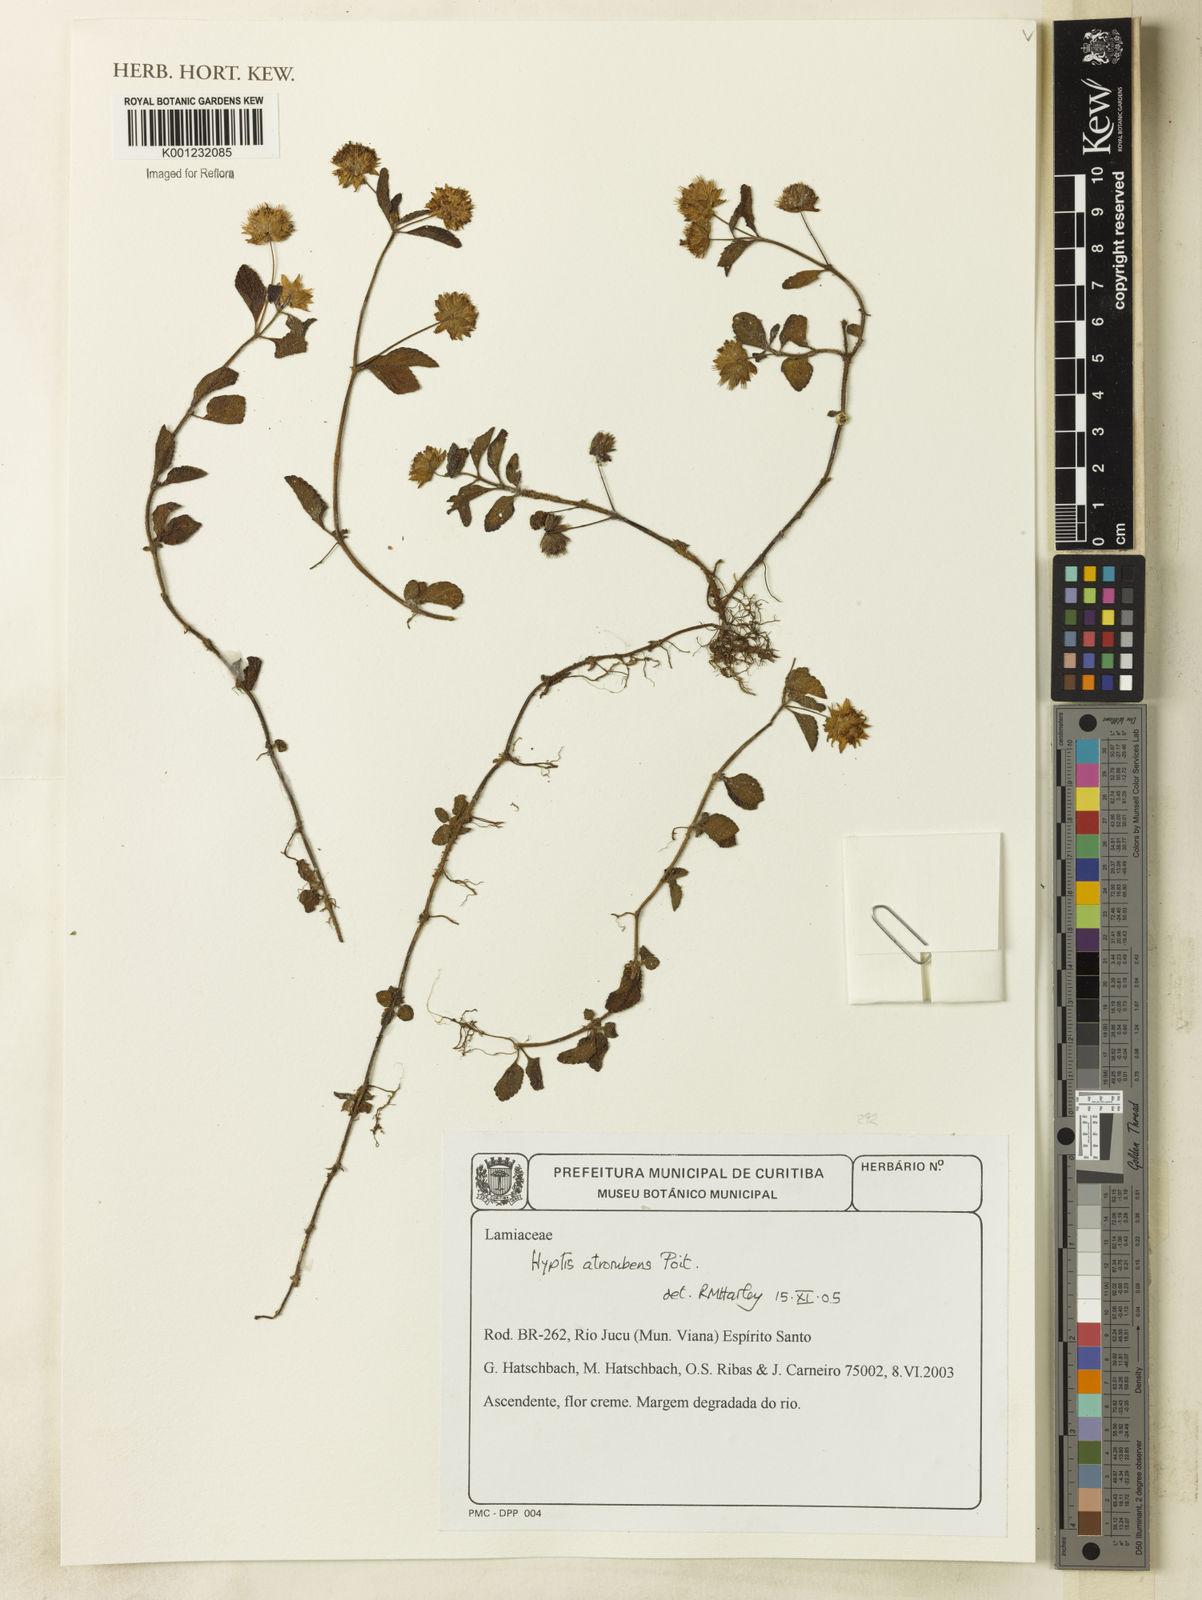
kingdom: Plantae
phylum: Tracheophyta
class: Magnoliopsida
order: Lamiales
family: Lamiaceae
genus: Hyptis
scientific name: Hyptis atrorubens
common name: Lanmant
